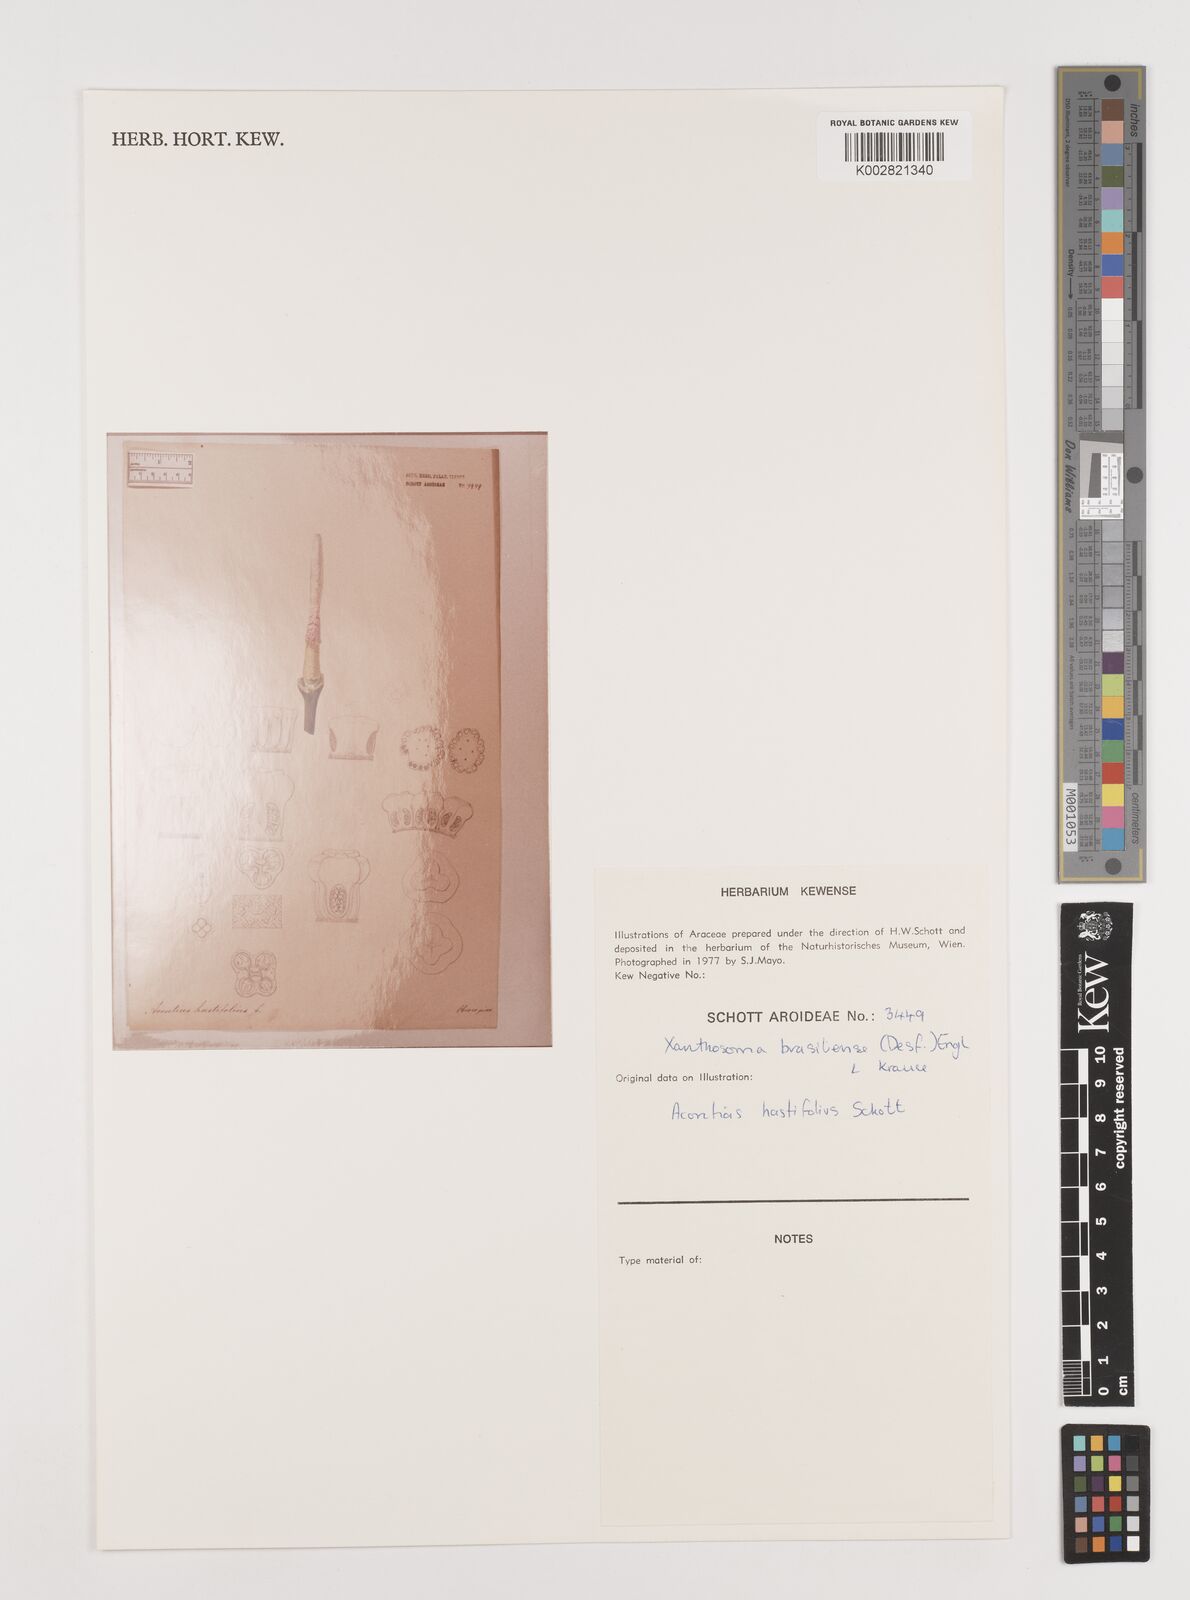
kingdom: Plantae
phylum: Tracheophyta
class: Liliopsida
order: Alismatales
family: Araceae
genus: Xanthosoma
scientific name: Xanthosoma brasiliense
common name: Tahitian-spinach
